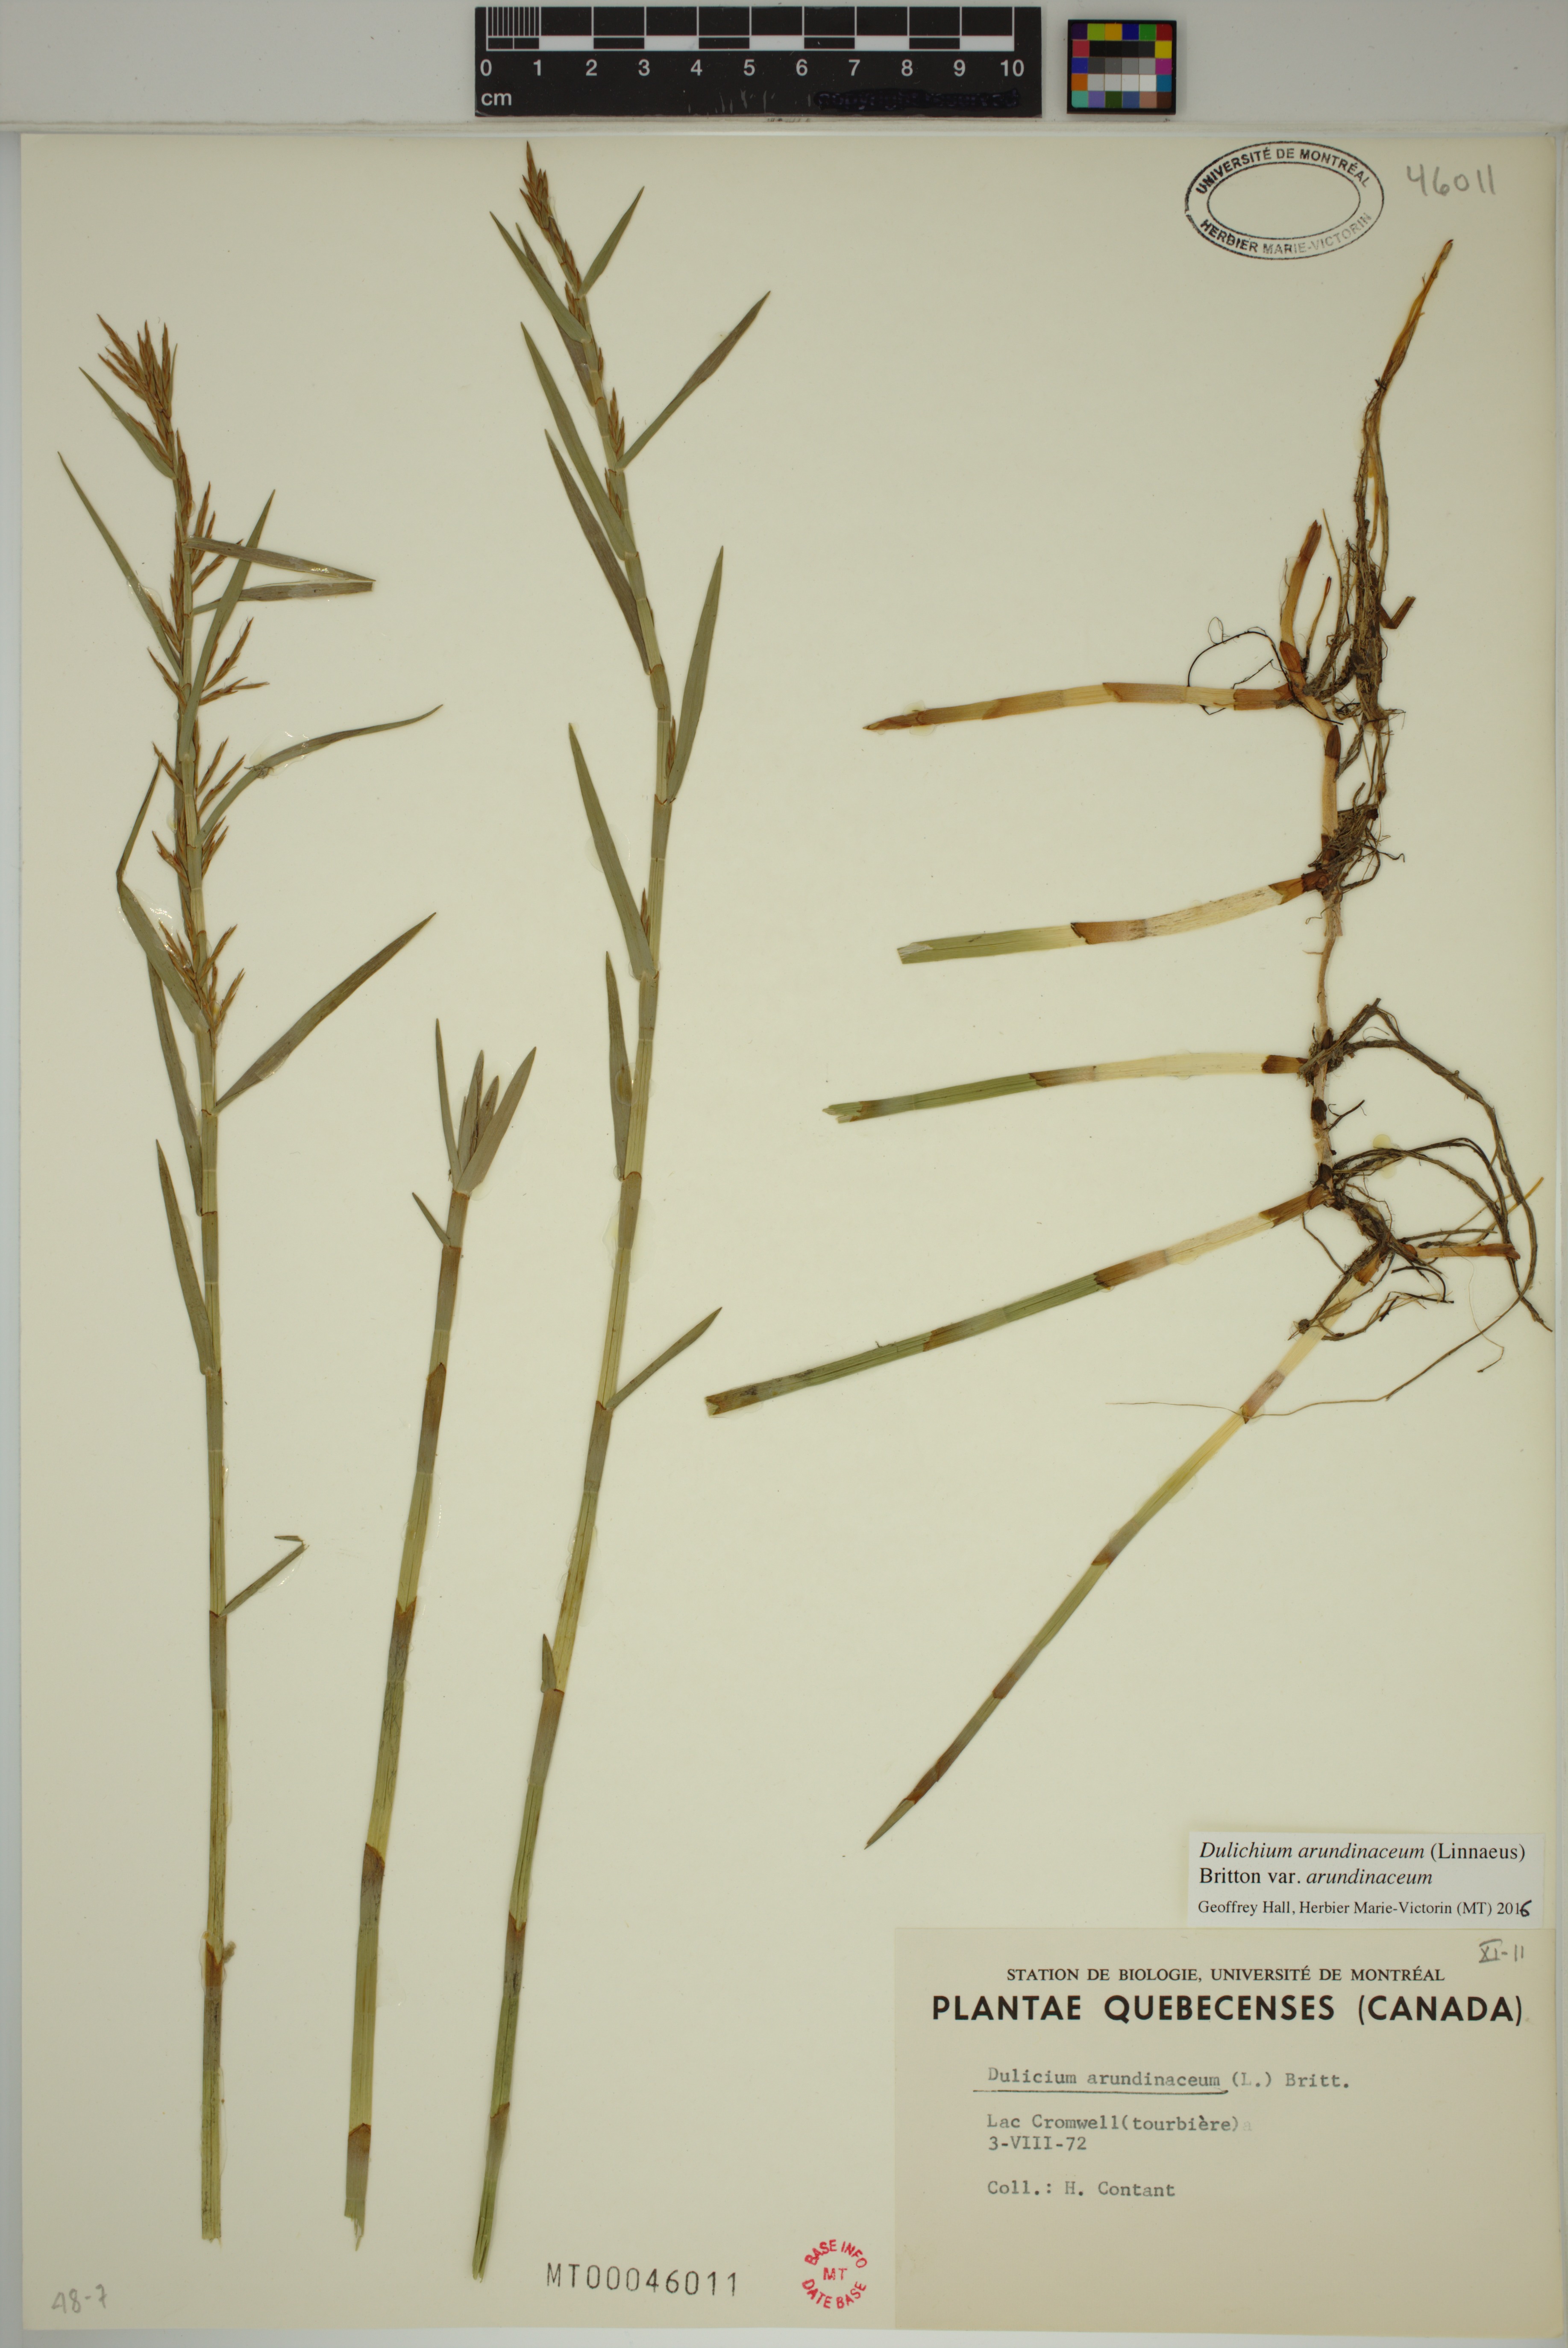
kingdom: Plantae
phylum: Tracheophyta
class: Liliopsida
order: Poales
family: Cyperaceae
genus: Dulichium
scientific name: Dulichium arundinaceum
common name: Three-way sedge
